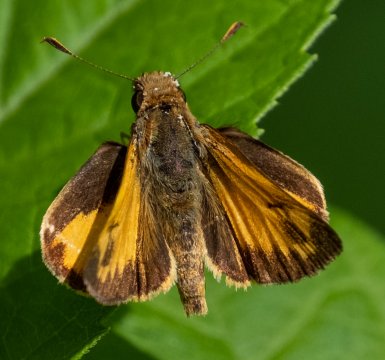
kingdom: Animalia
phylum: Arthropoda
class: Insecta
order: Lepidoptera
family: Hesperiidae
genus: Lon
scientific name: Lon zabulon
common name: Zabulon Skipper
